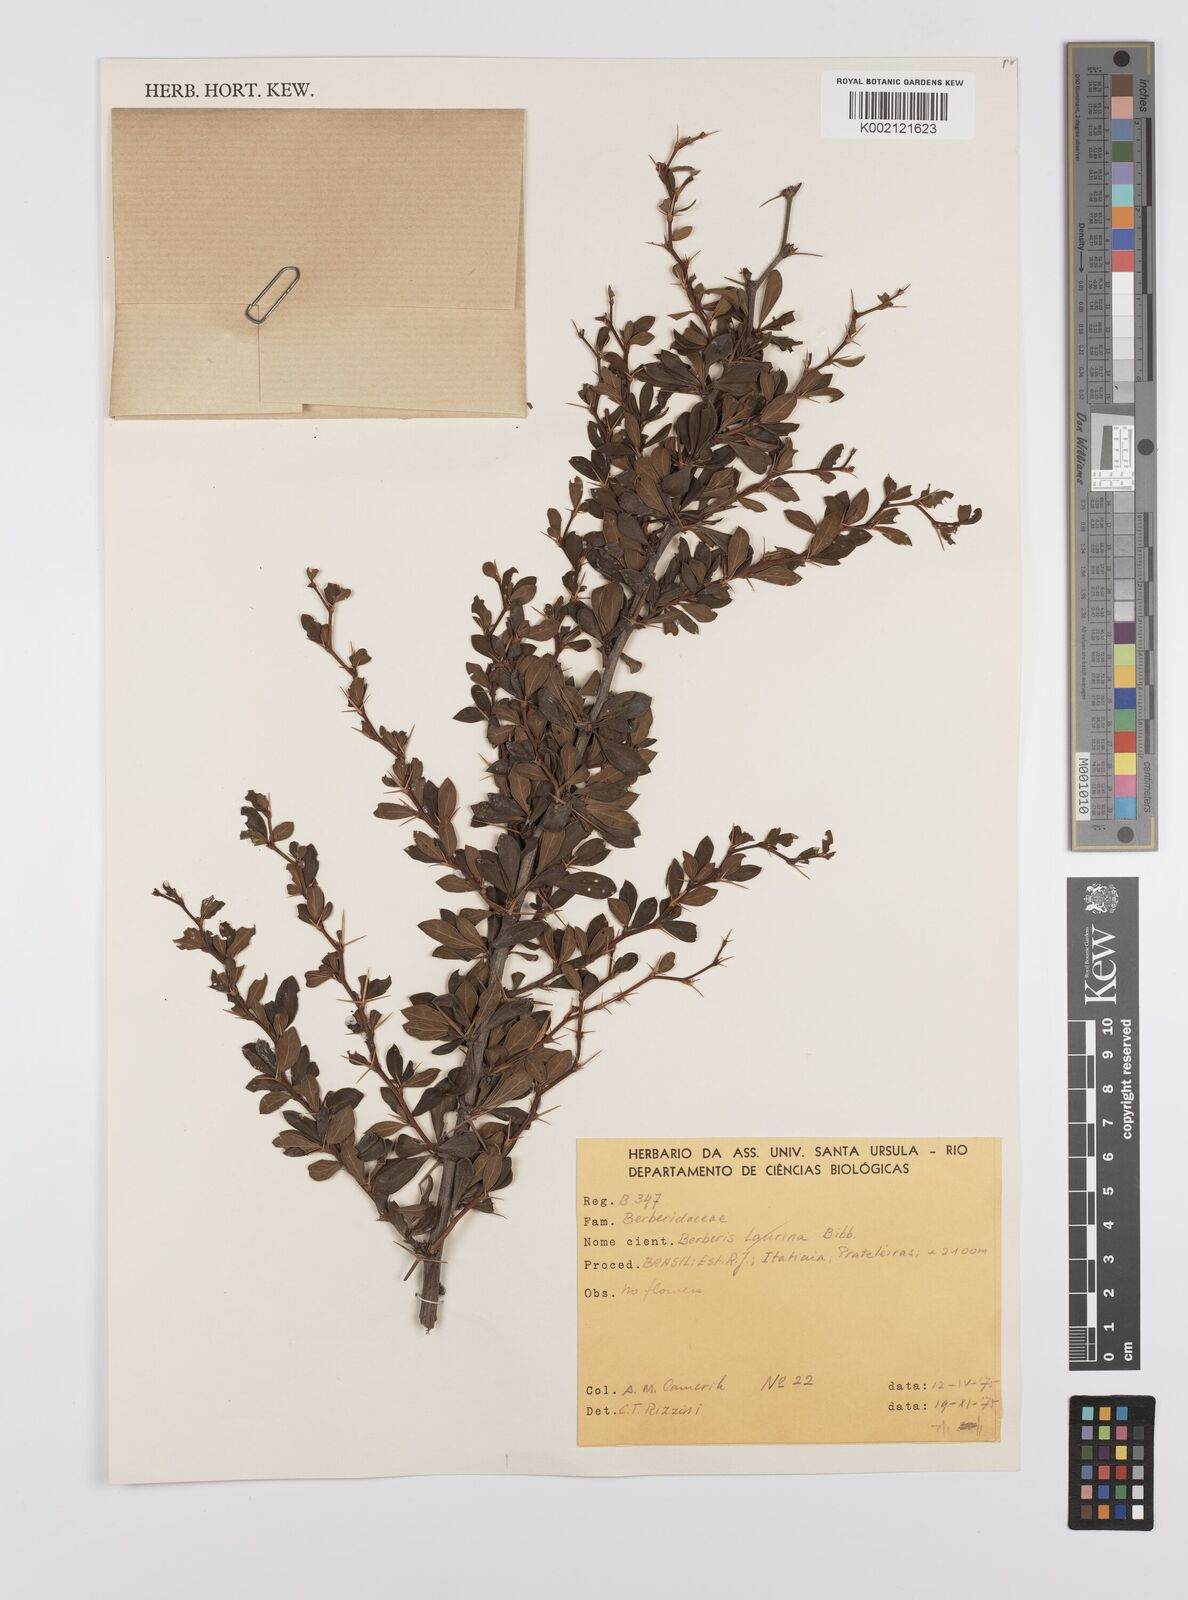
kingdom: Plantae
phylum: Tracheophyta
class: Magnoliopsida
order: Ranunculales
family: Berberidaceae
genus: Berberis
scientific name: Berberis
